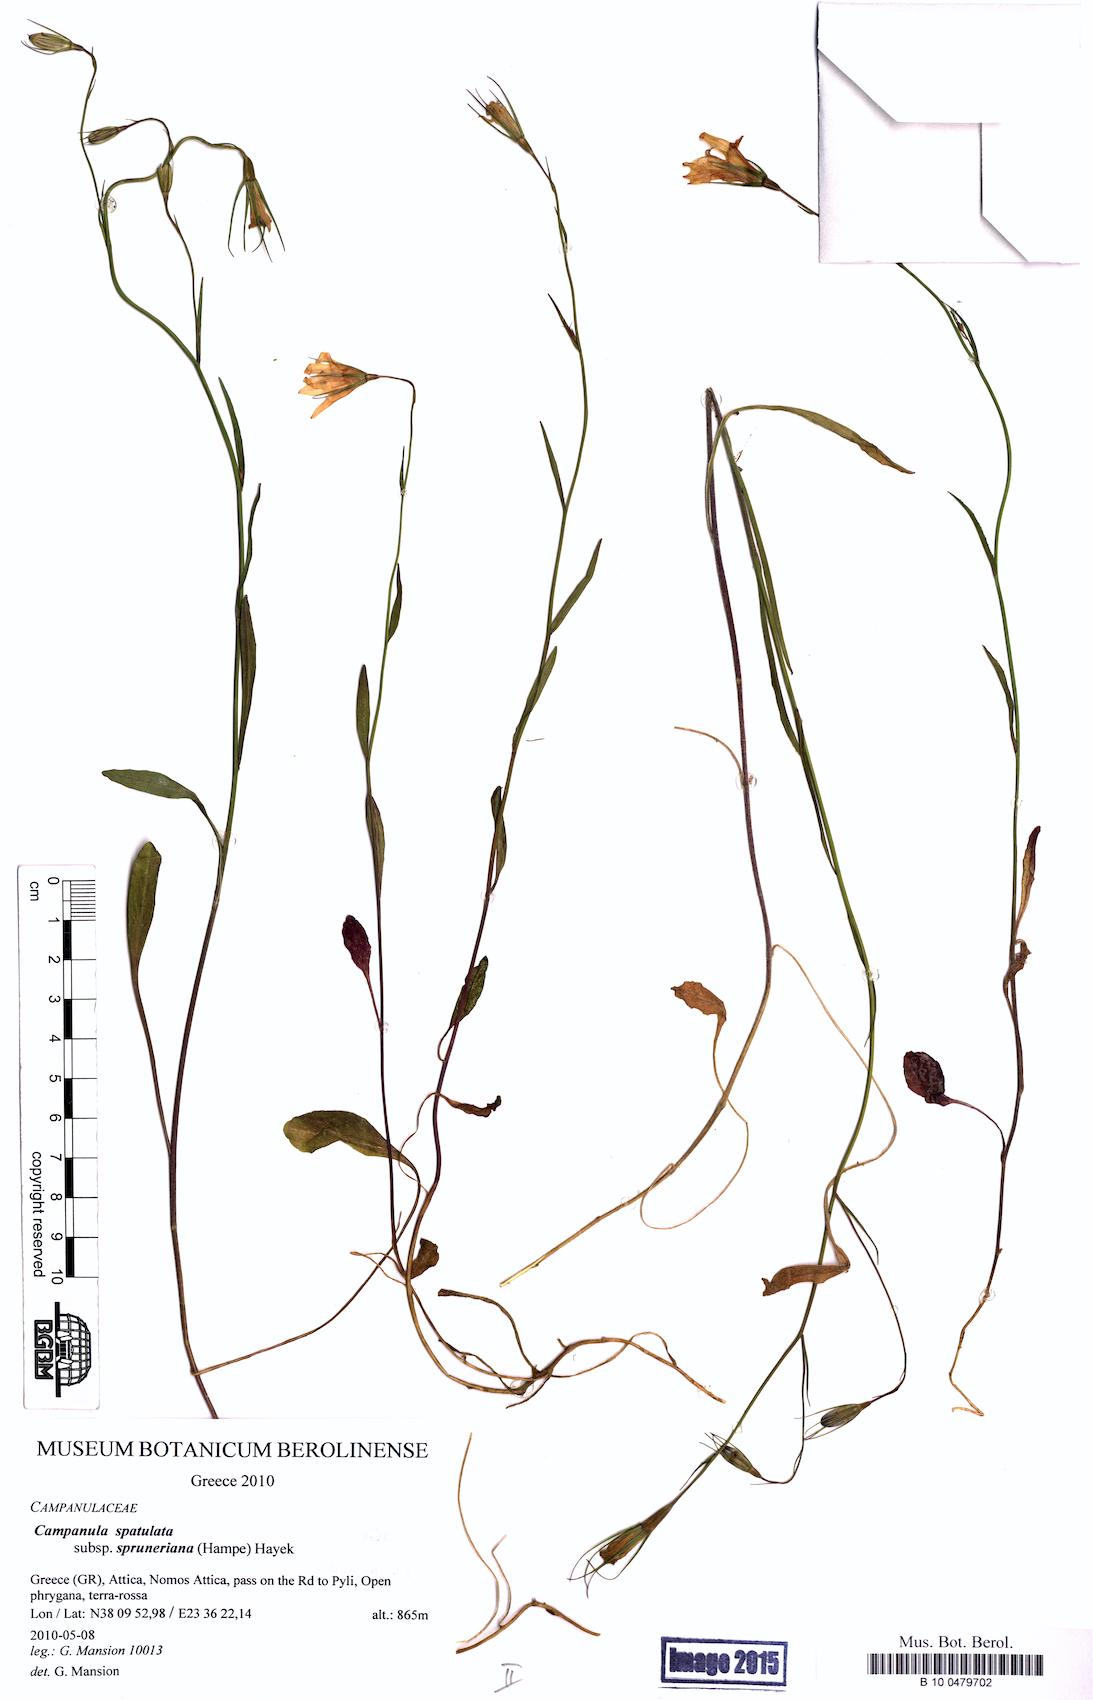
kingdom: Plantae
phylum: Tracheophyta
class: Magnoliopsida
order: Asterales
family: Campanulaceae
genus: Campanula
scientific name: Campanula spatulata
